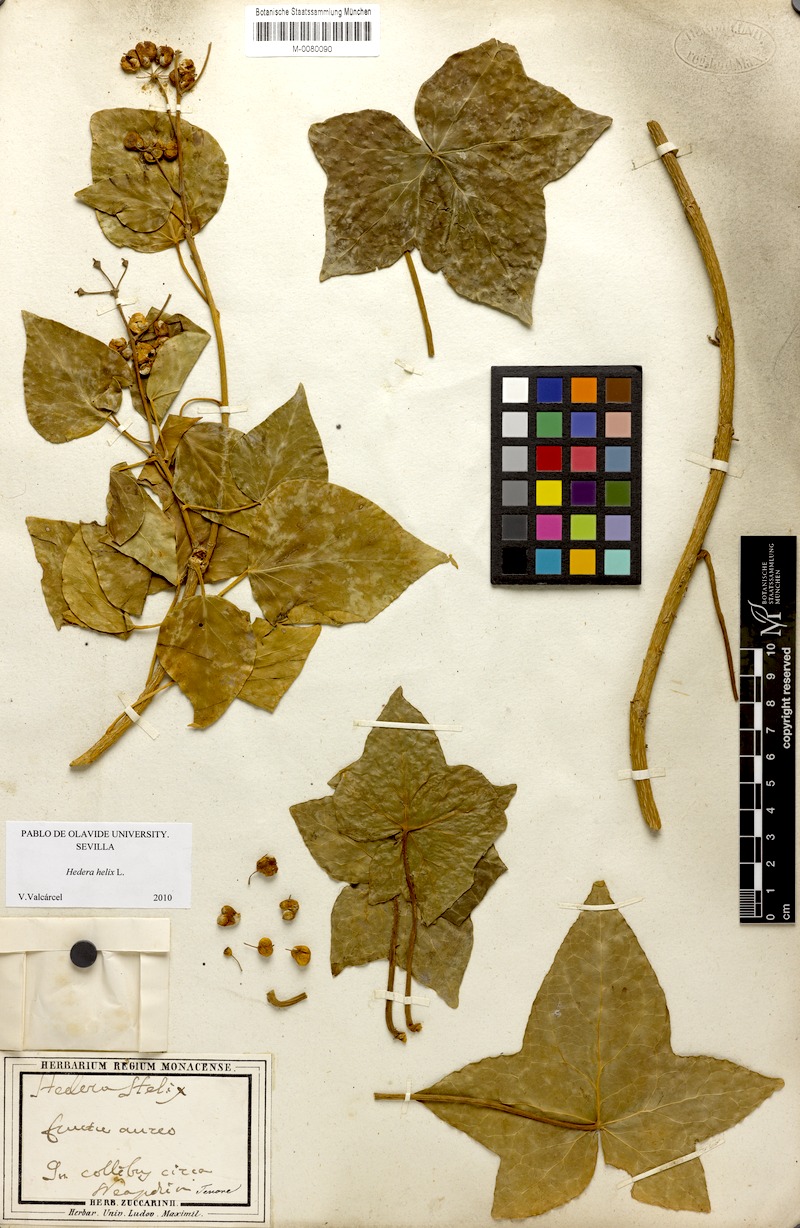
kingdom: Plantae
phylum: Tracheophyta
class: Magnoliopsida
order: Apiales
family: Araliaceae
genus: Hedera
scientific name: Hedera helix
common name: Ivy
